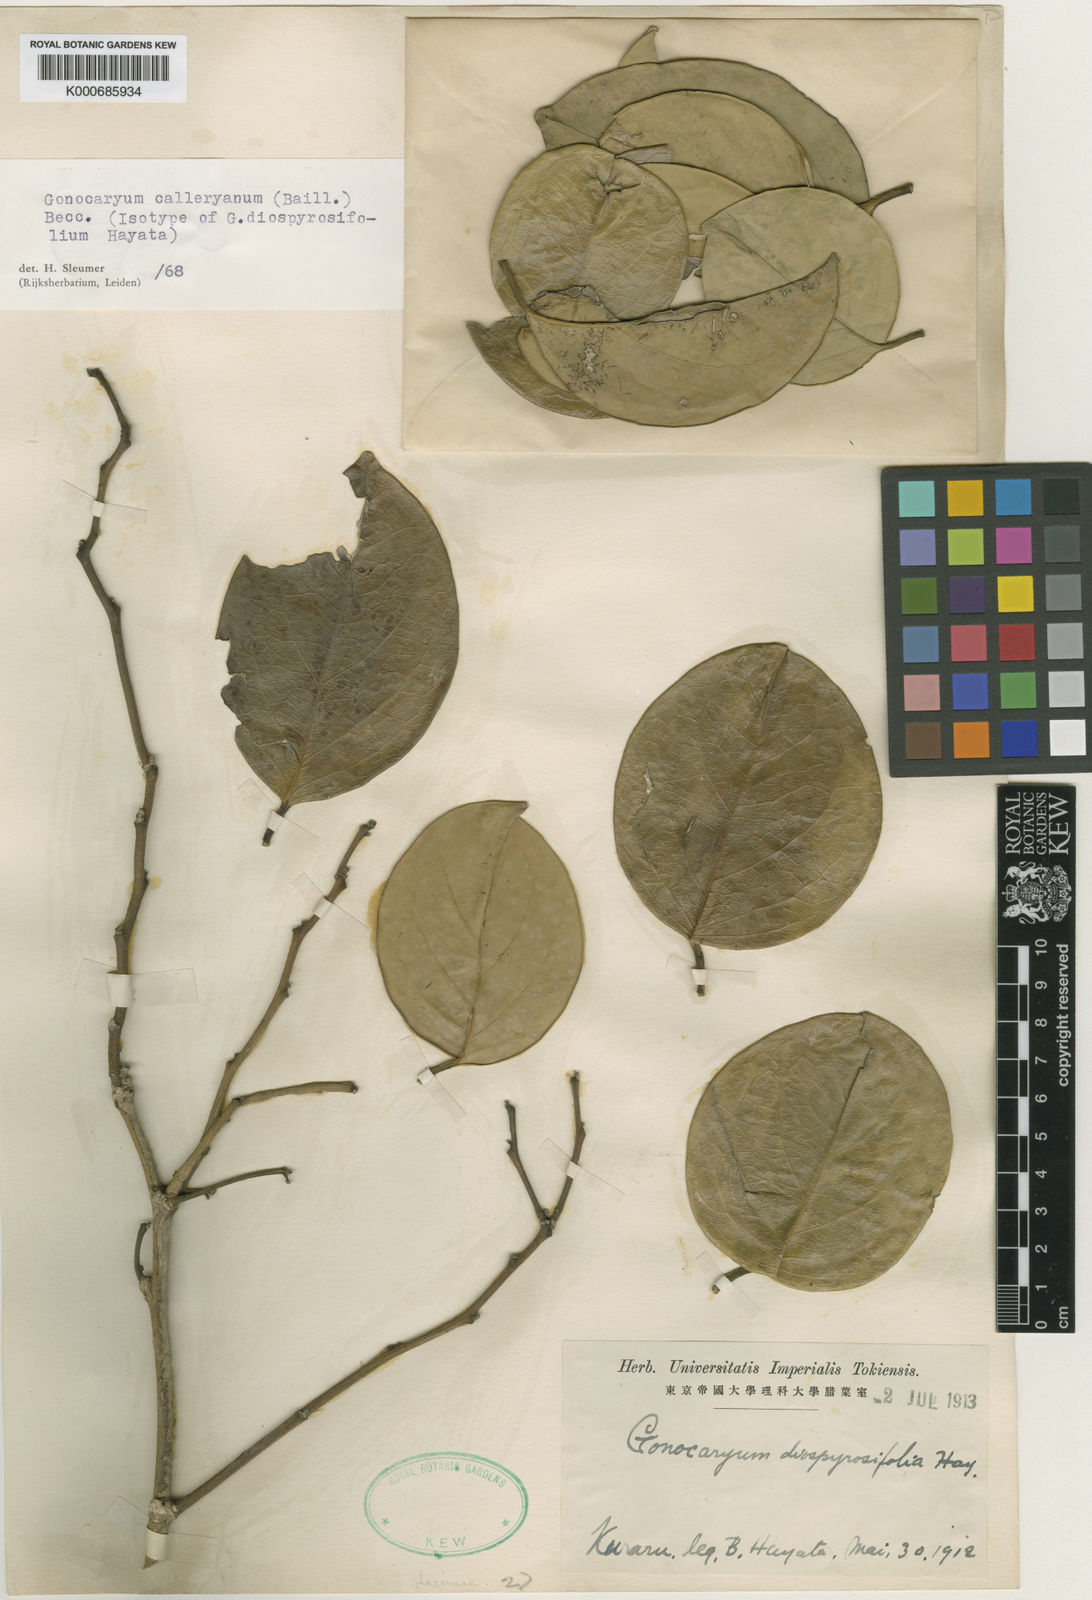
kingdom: Plantae
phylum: Tracheophyta
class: Magnoliopsida
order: Cardiopteridales
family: Cardiopteridaceae
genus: Gonocaryum
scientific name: Gonocaryum calleryanum
